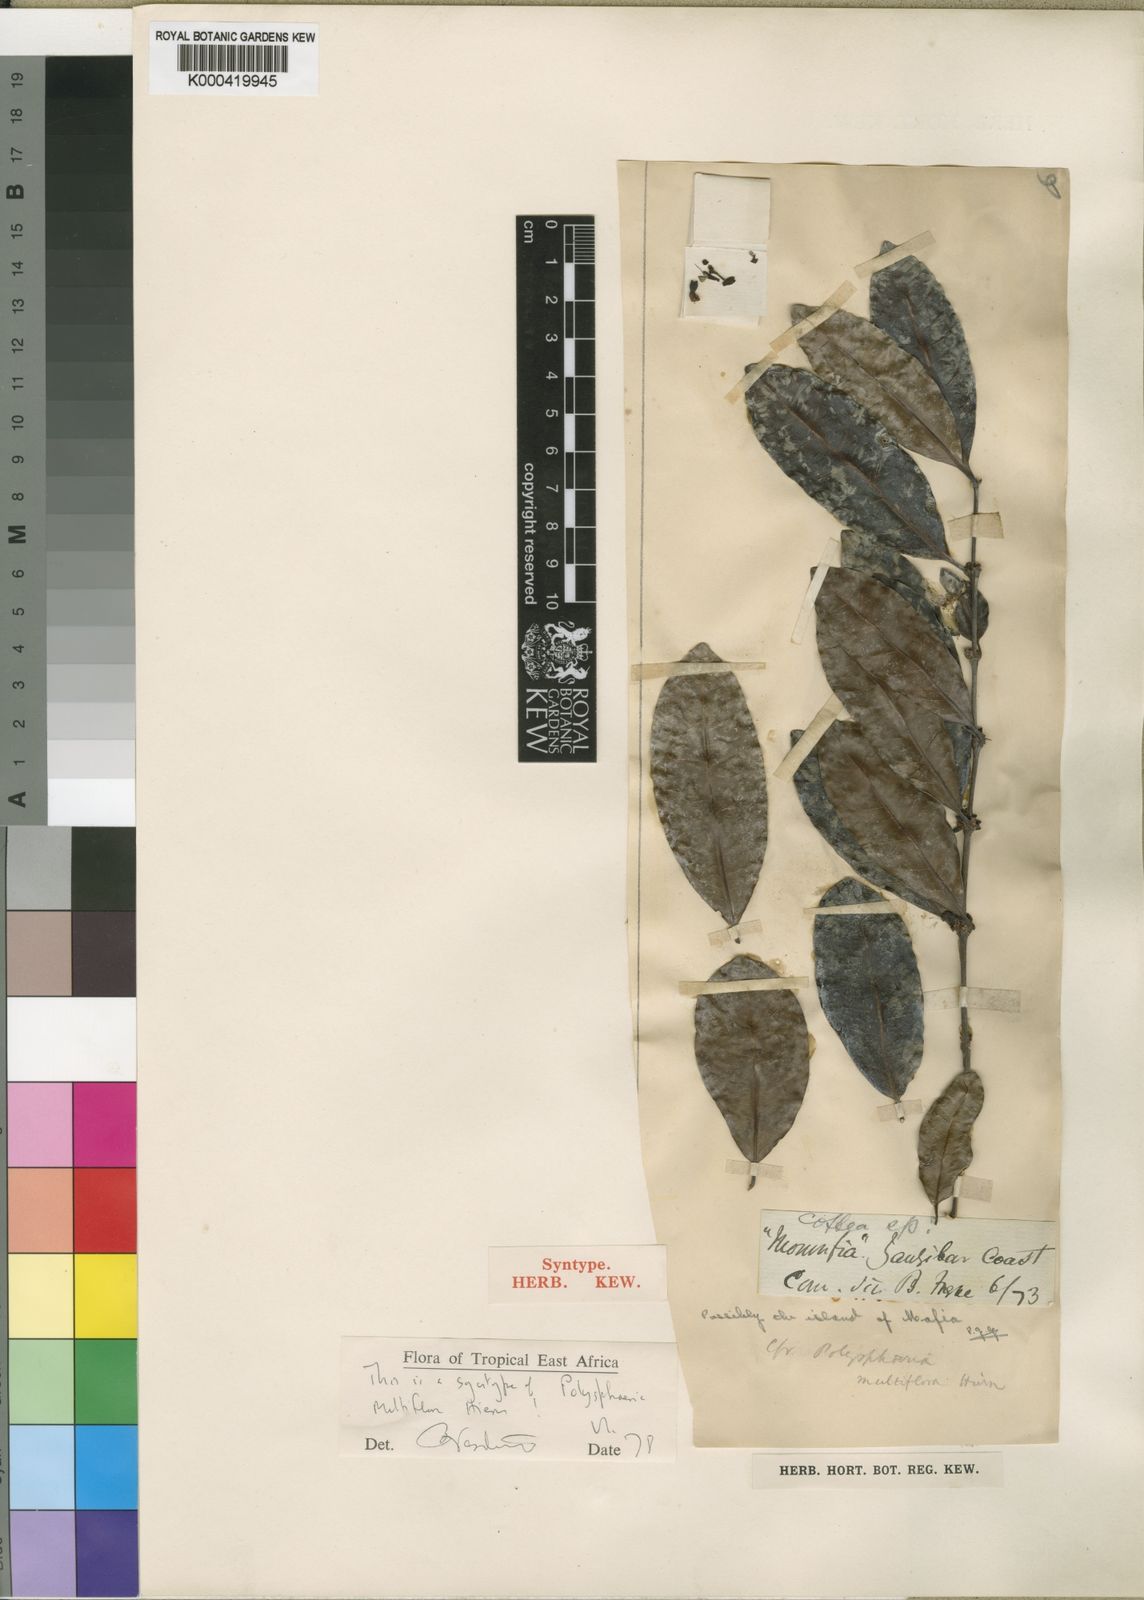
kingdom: Plantae
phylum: Tracheophyta
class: Magnoliopsida
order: Gentianales
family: Rubiaceae
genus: Polysphaeria
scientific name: Polysphaeria multiflora
